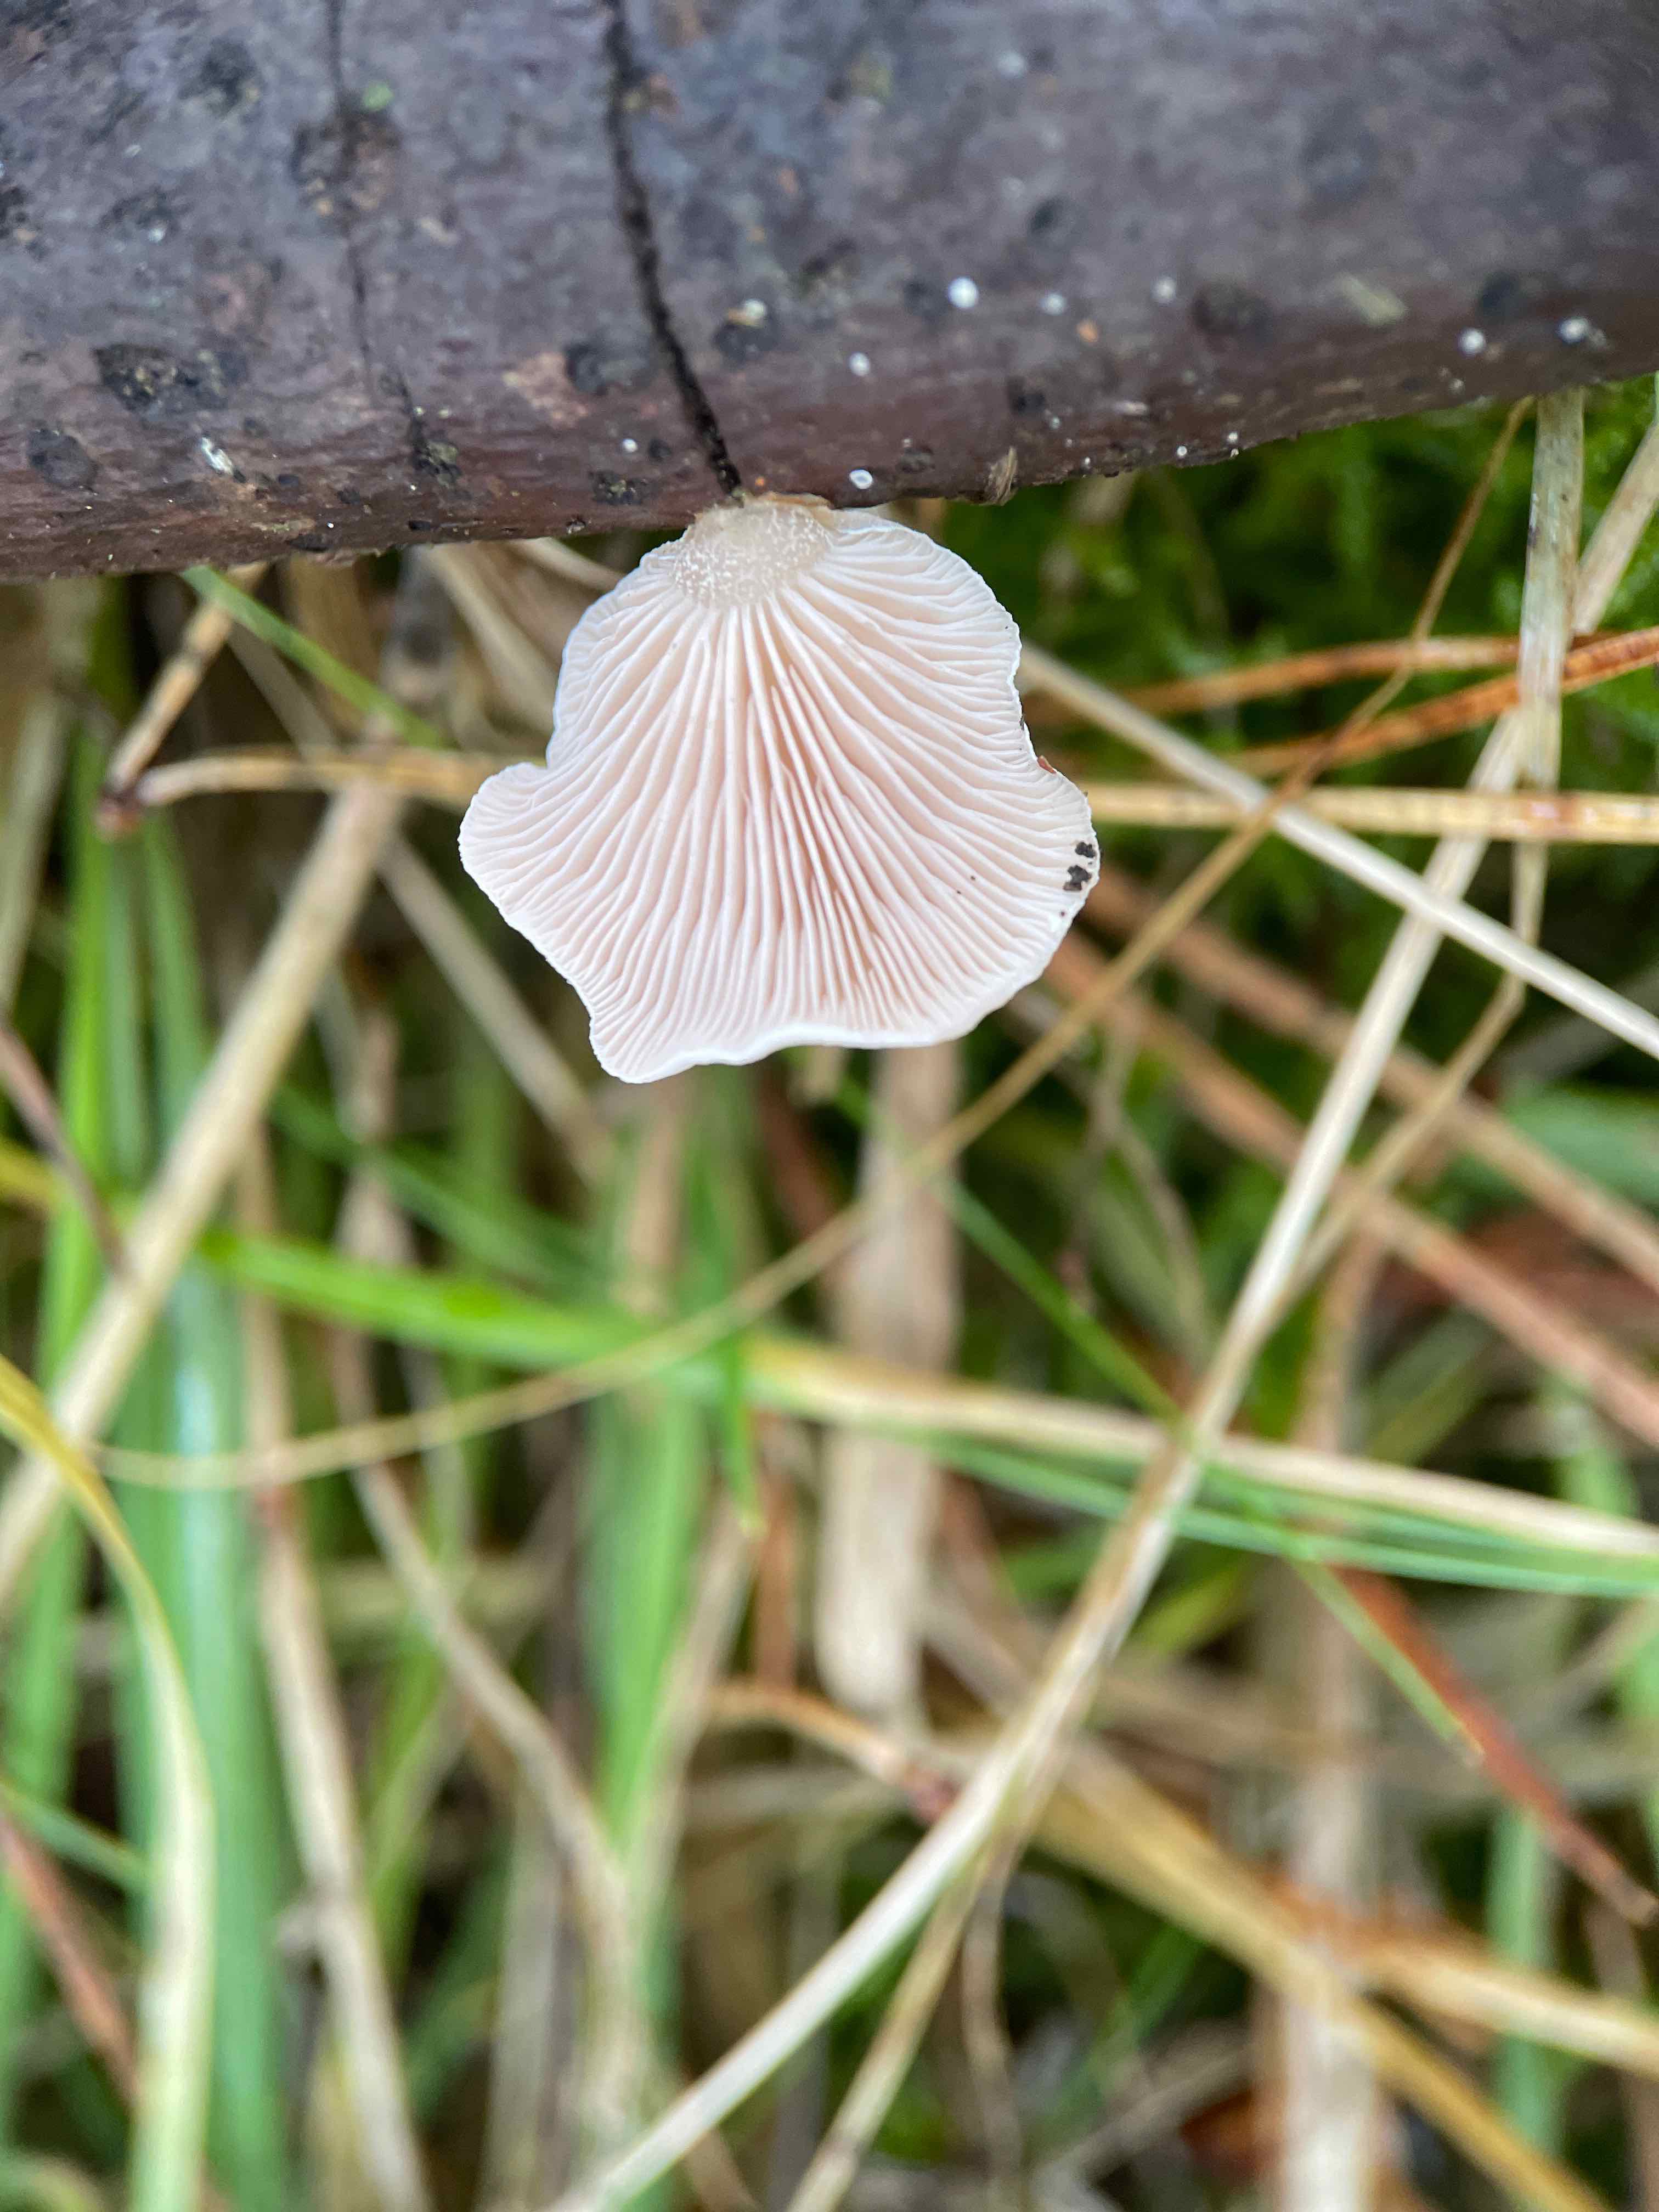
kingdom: Fungi
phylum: Basidiomycota
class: Agaricomycetes
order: Agaricales
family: Mycenaceae
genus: Panellus
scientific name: Panellus mitis
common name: mild epaulethat
